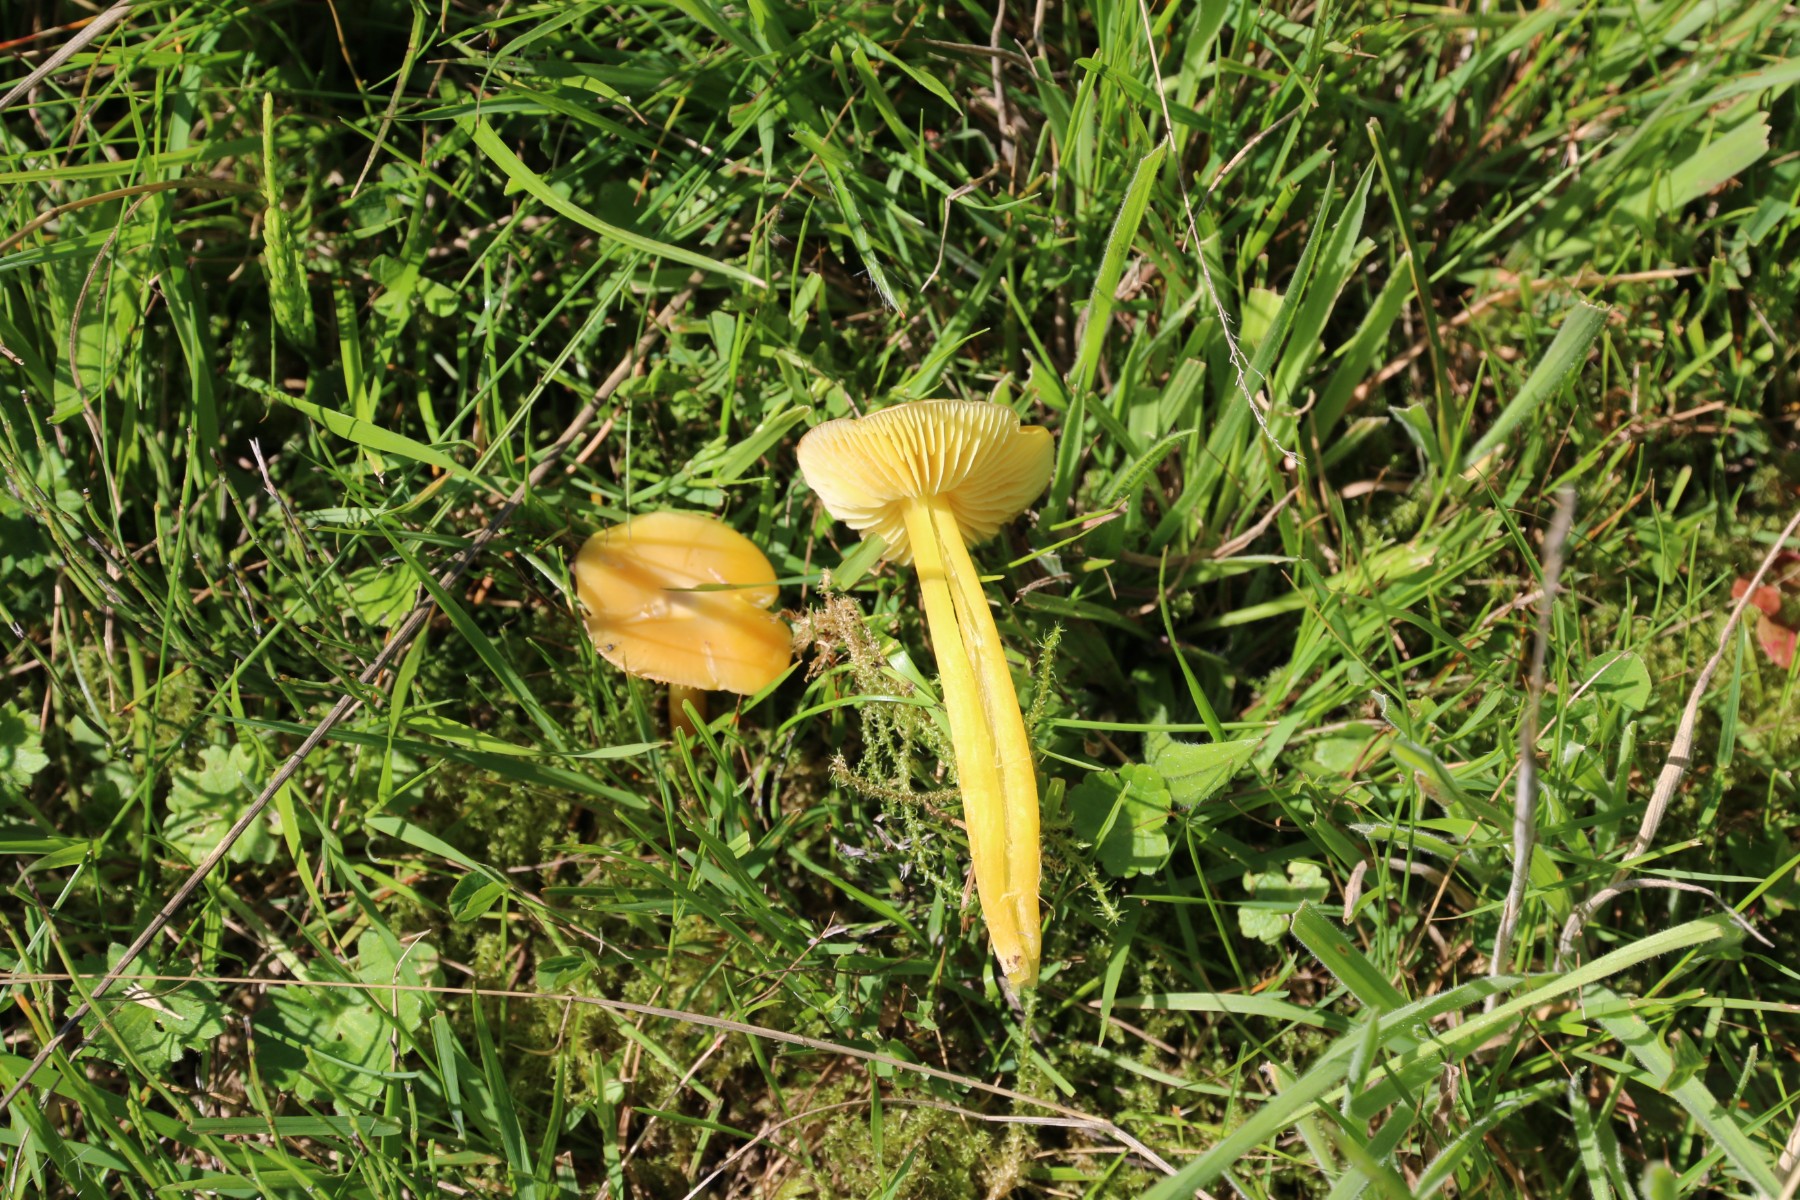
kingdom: Fungi
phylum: Basidiomycota
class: Agaricomycetes
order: Agaricales
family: Hygrophoraceae
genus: Hygrocybe
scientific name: Hygrocybe chlorophana
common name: gul vokshat
